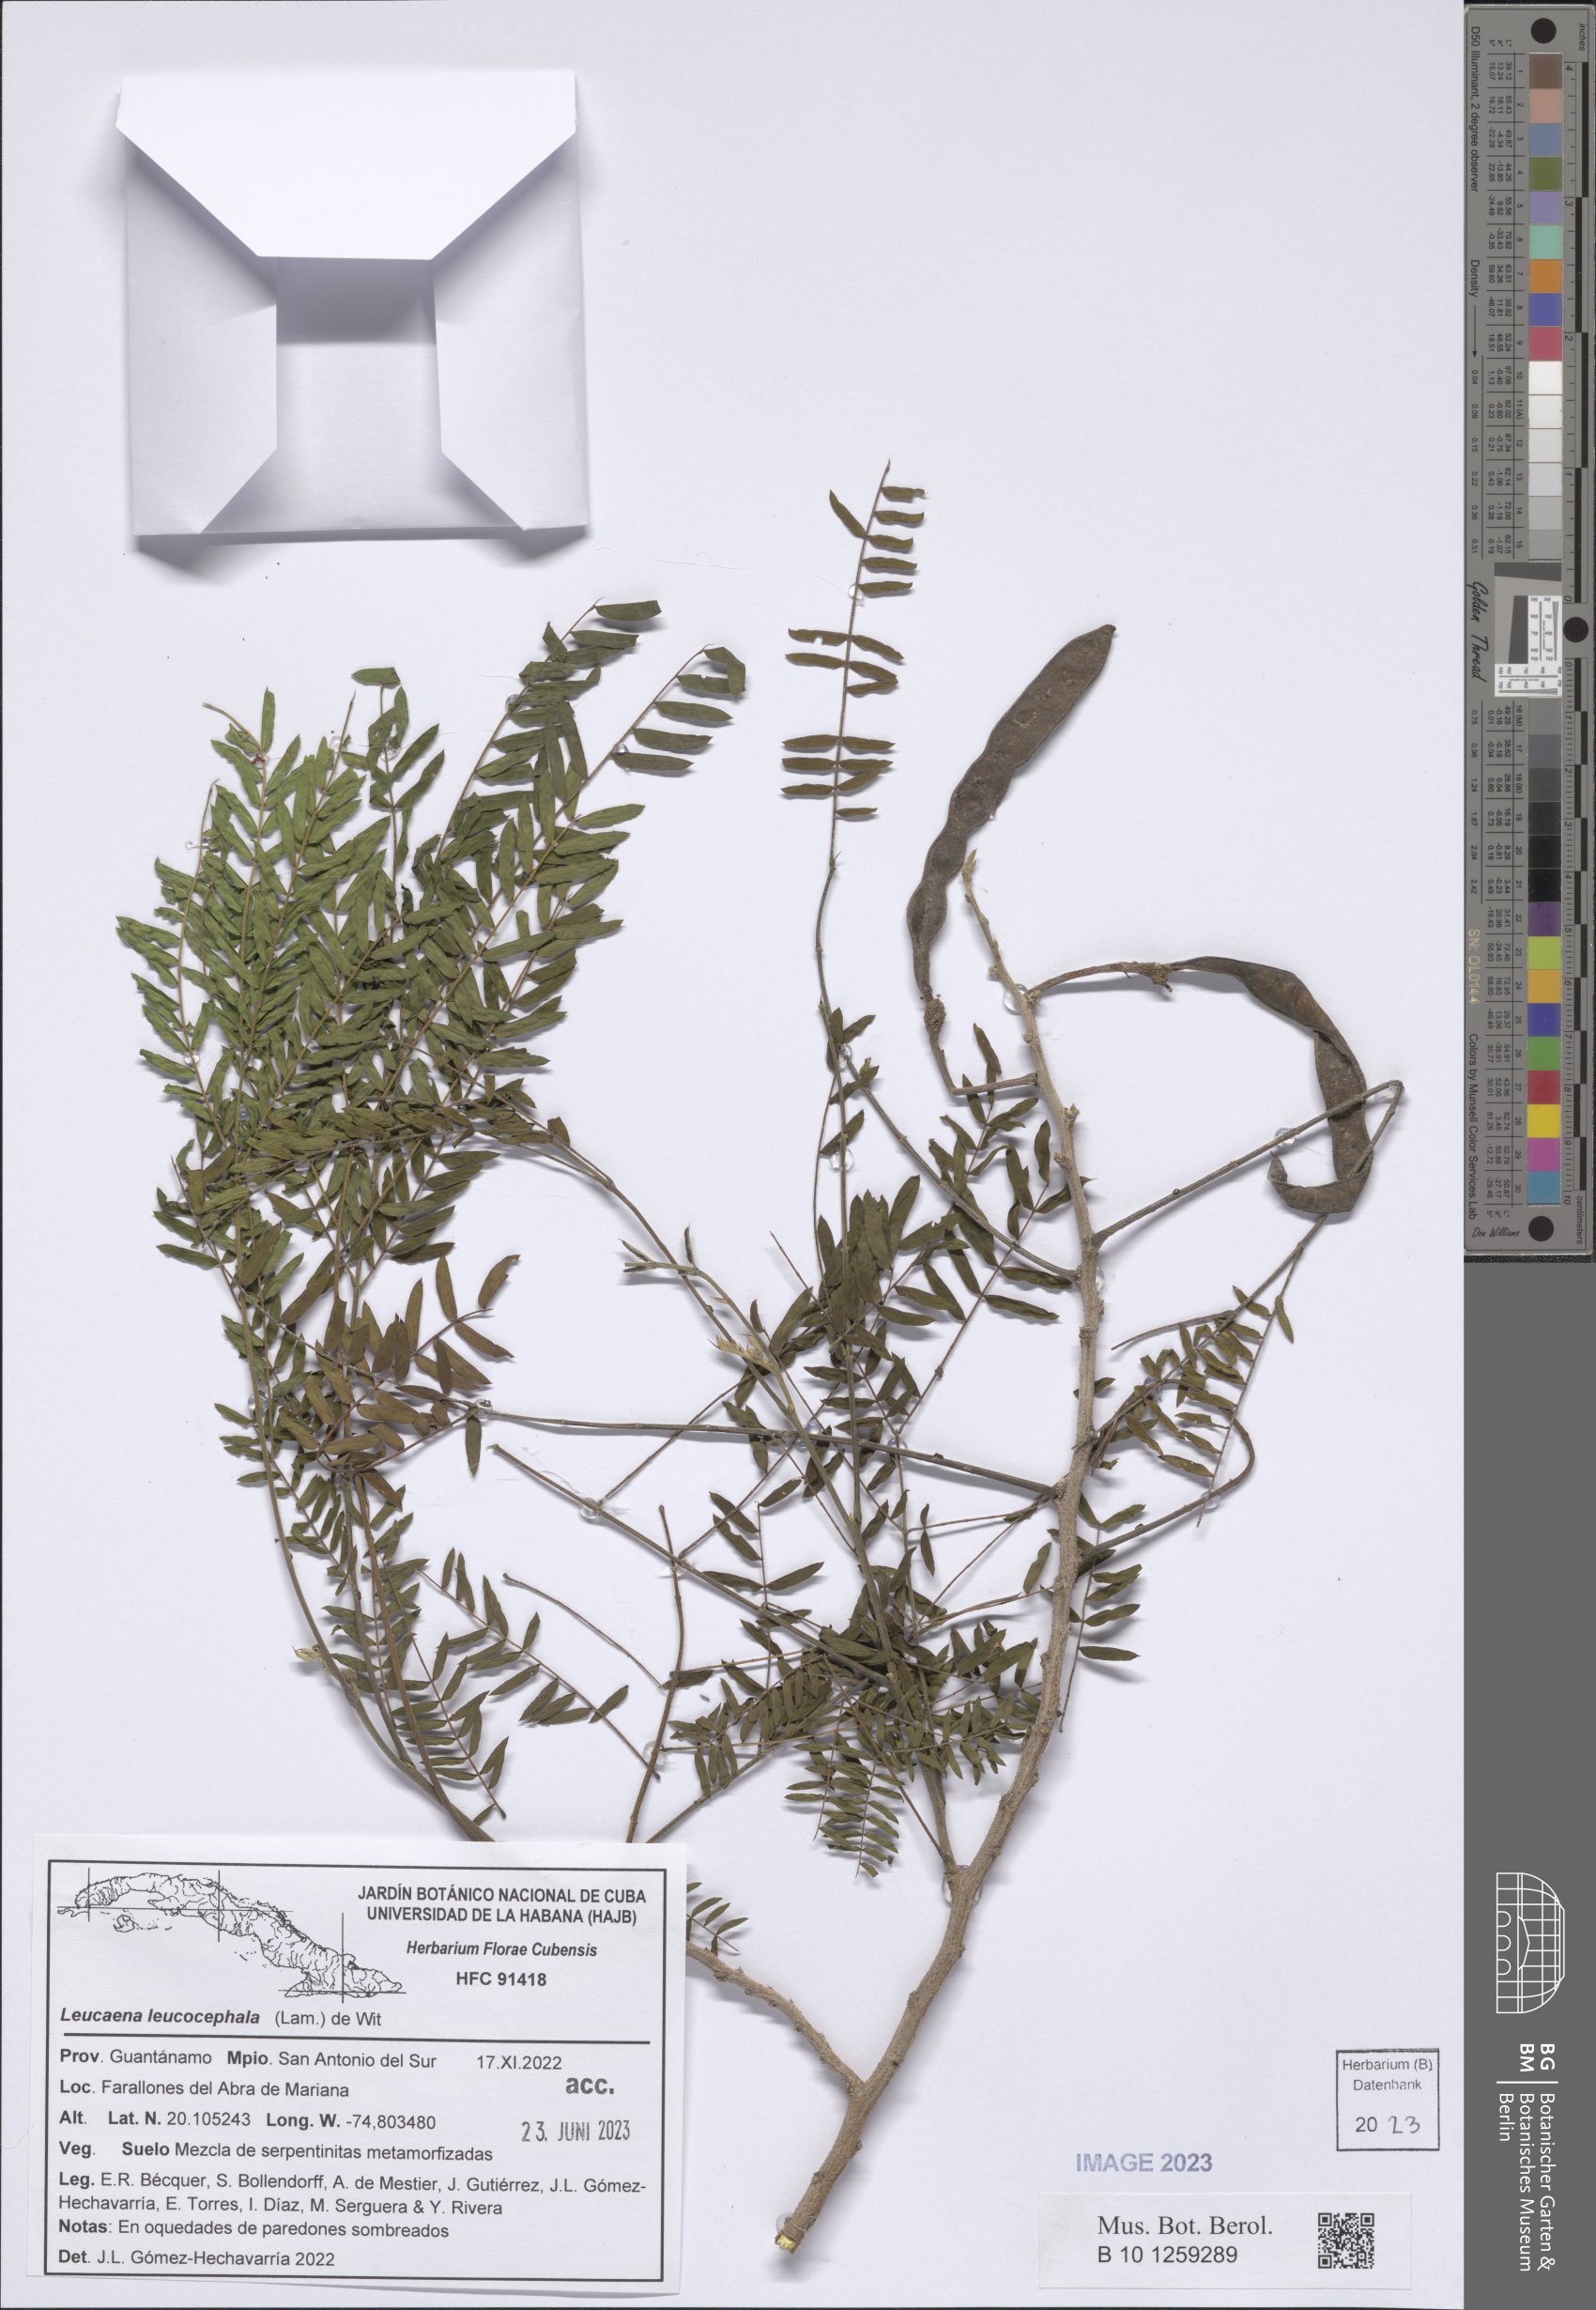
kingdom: Plantae
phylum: Tracheophyta
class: Magnoliopsida
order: Fabales
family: Fabaceae
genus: Leucaena
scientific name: Leucaena leucocephala
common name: White leadtree
